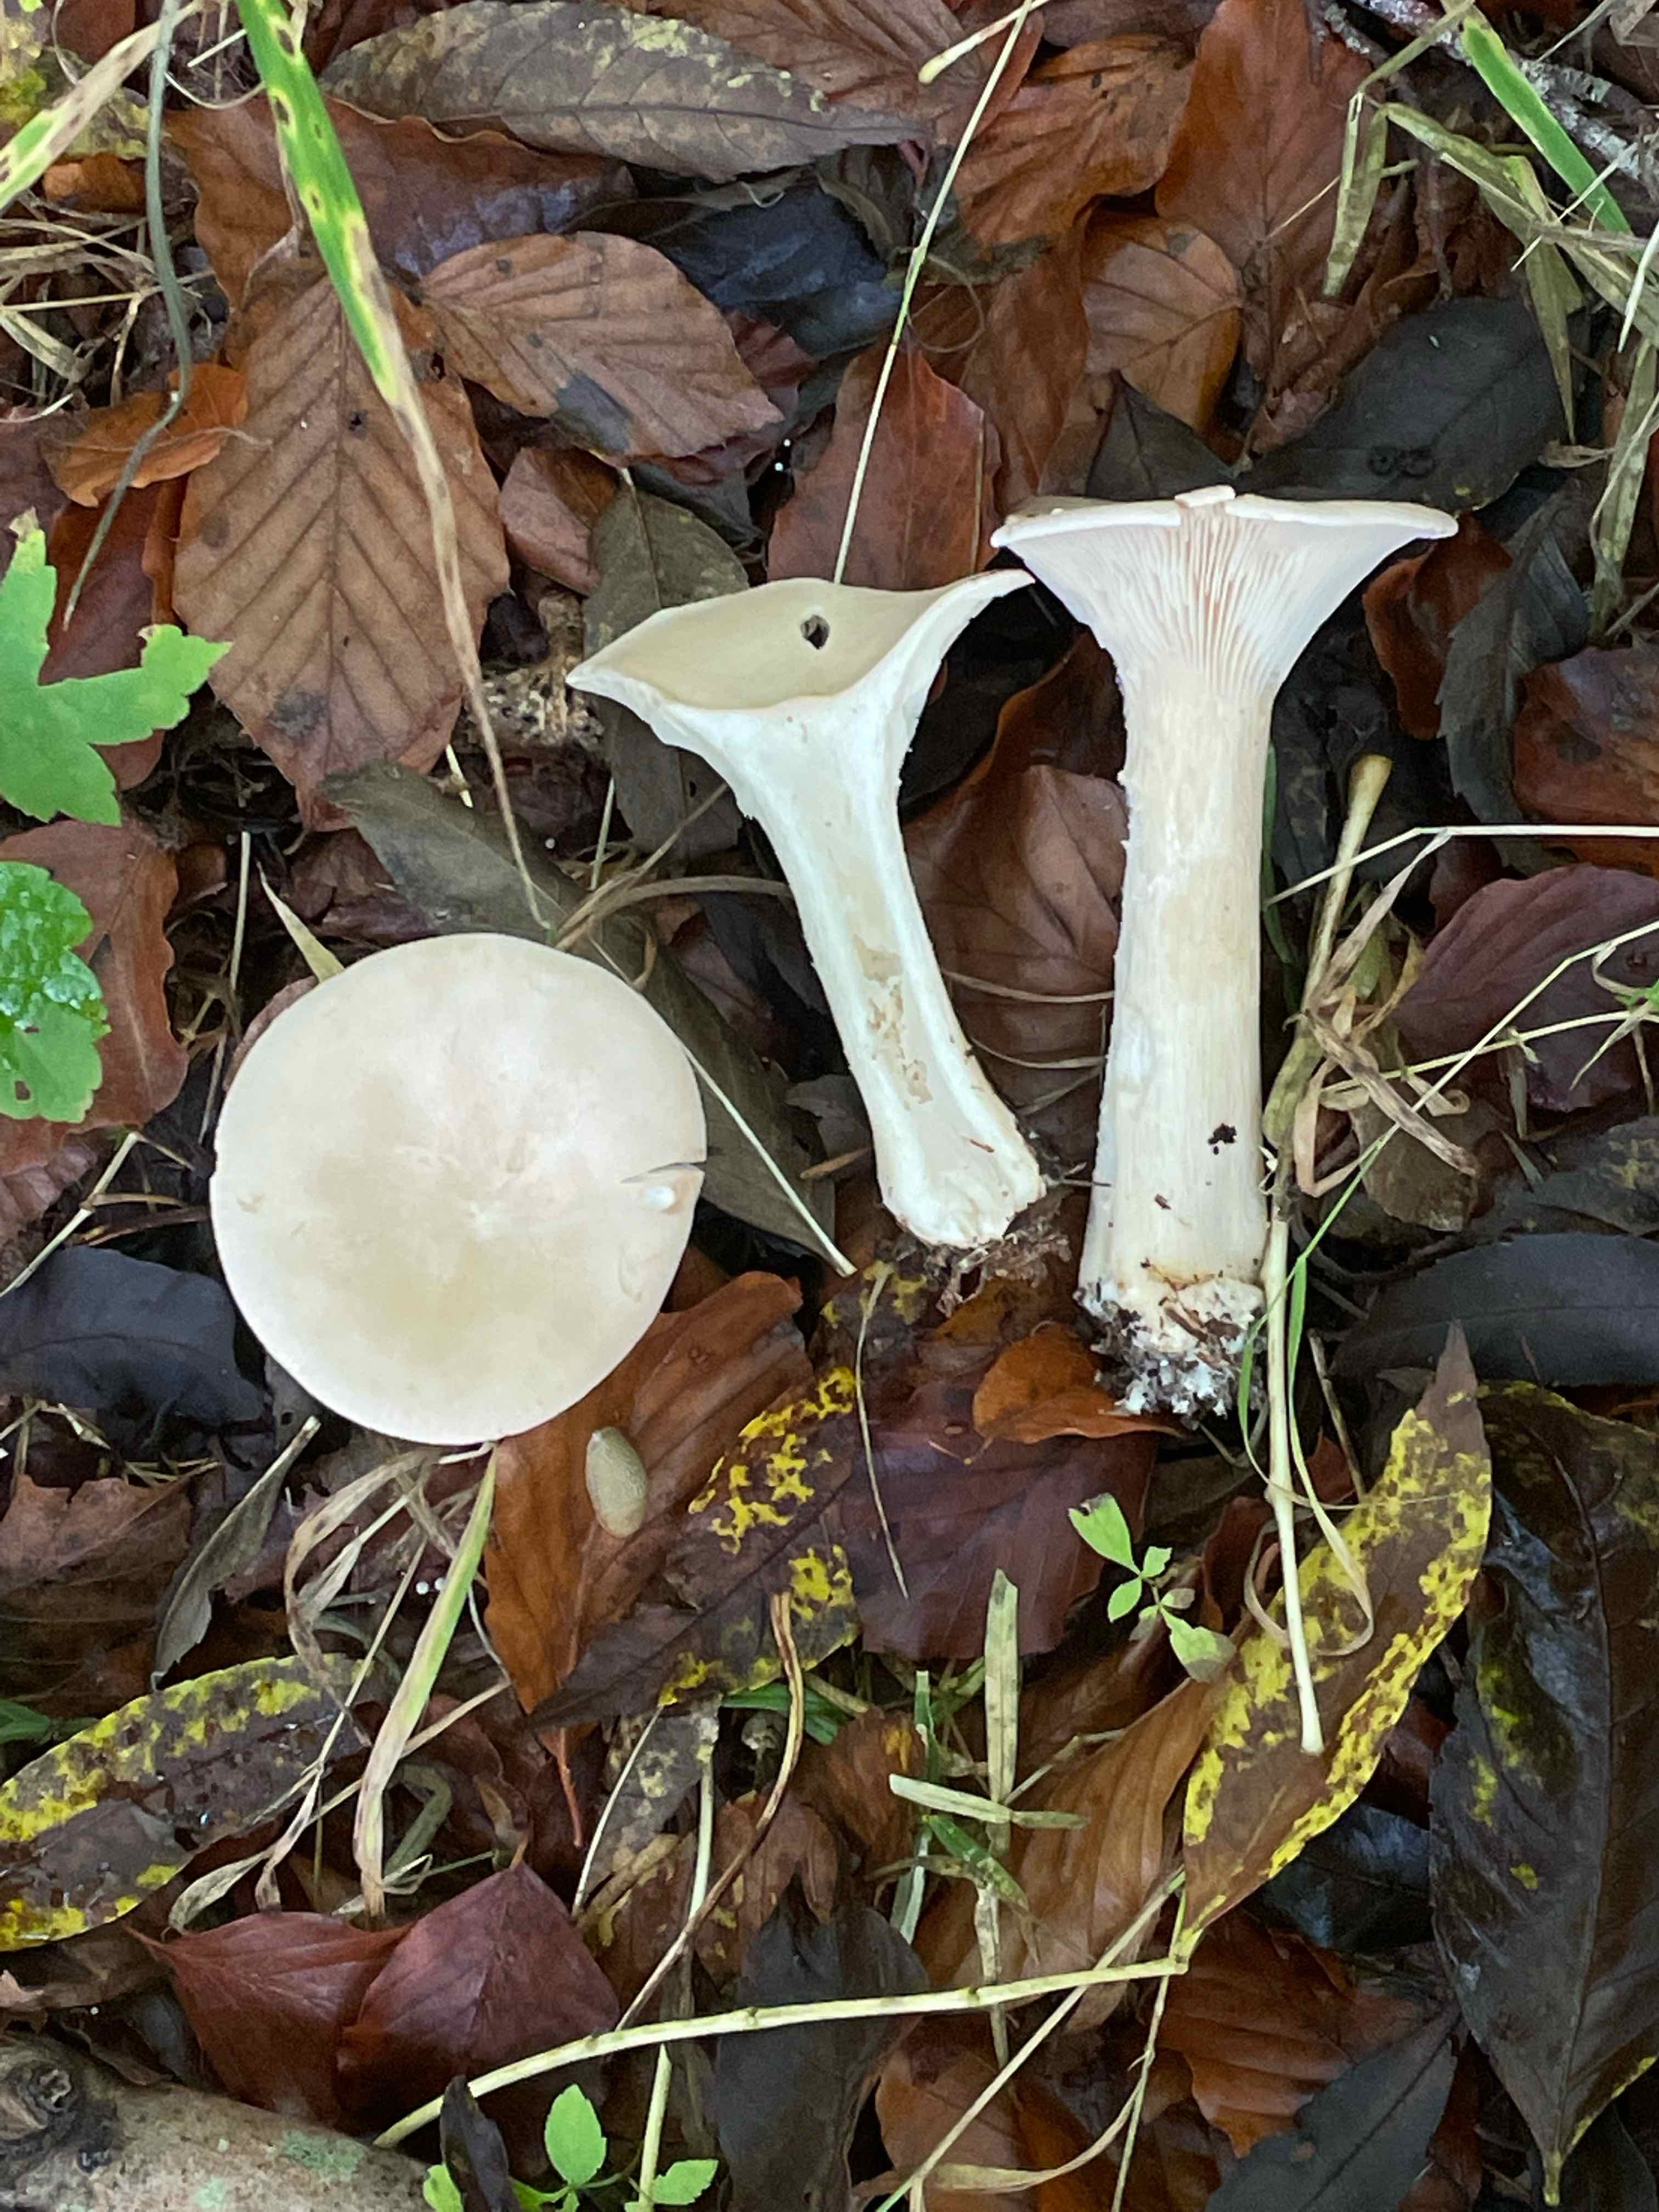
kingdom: Fungi
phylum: Basidiomycota
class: Agaricomycetes
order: Agaricales
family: Tricholomataceae
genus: Infundibulicybe
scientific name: Infundibulicybe geotropa
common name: stor tragthat
